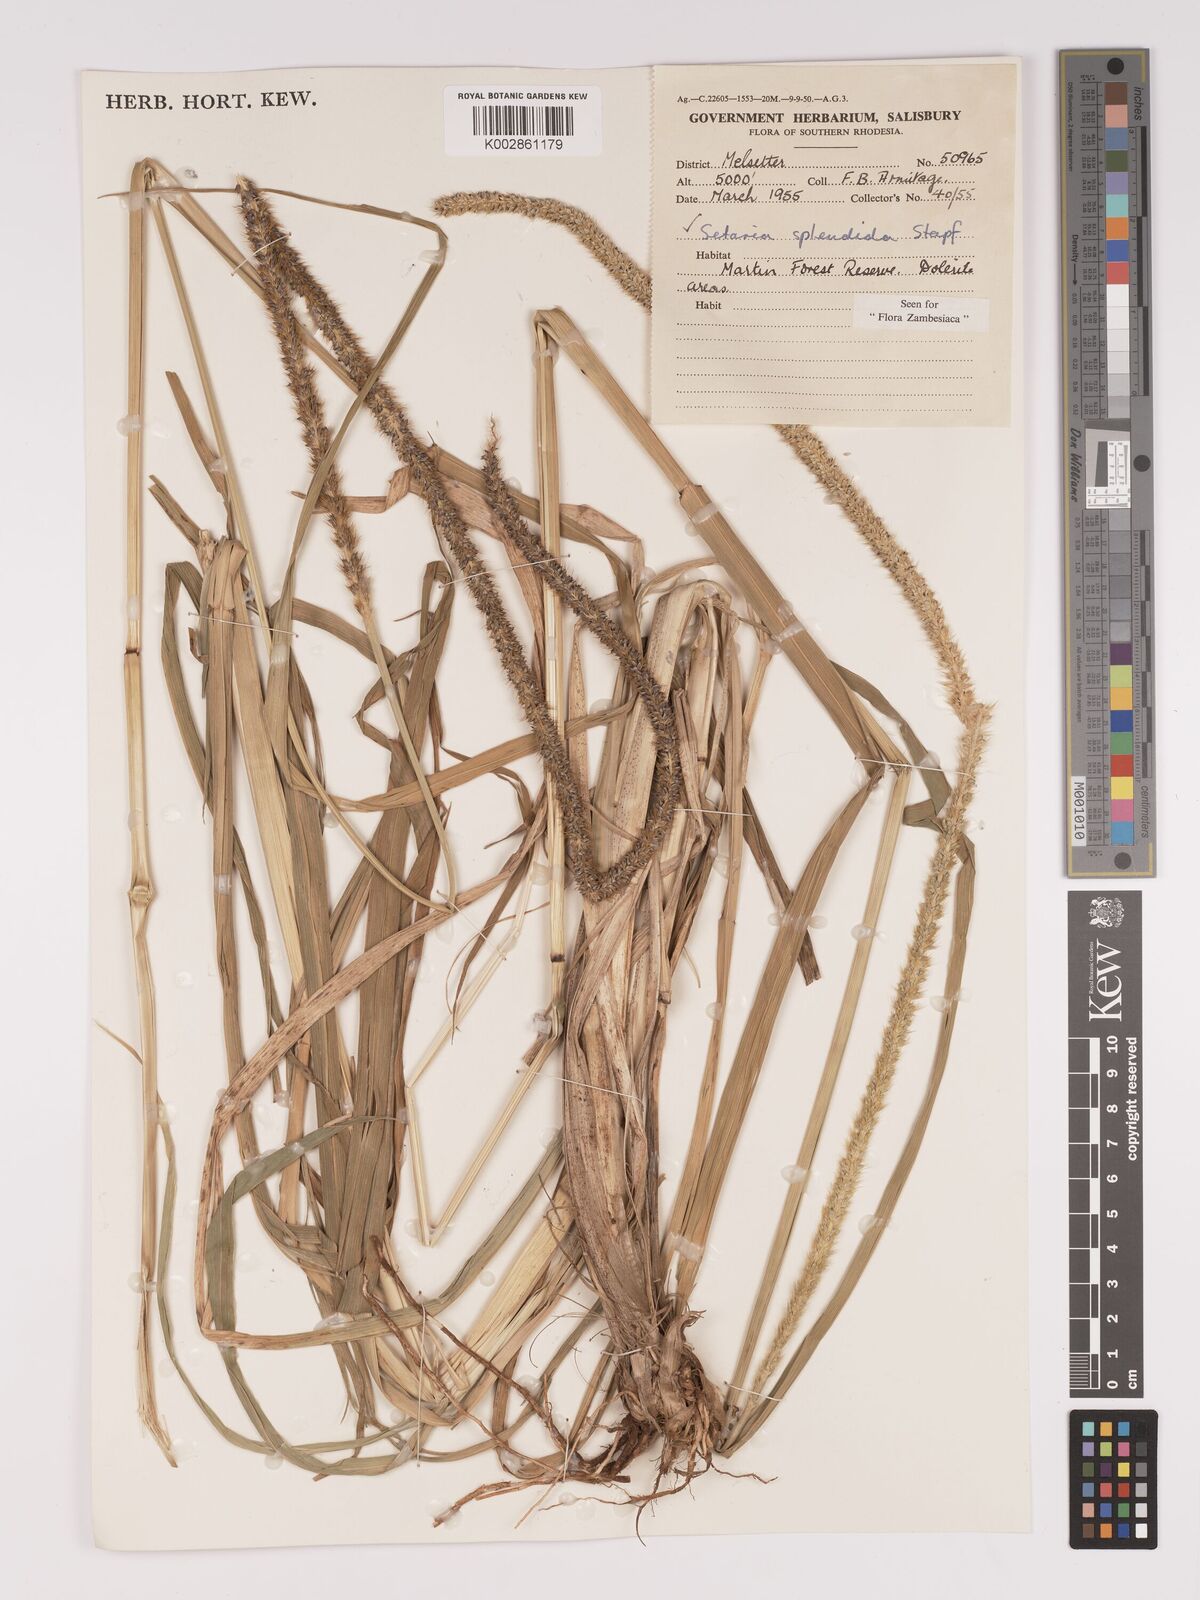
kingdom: Plantae
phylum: Tracheophyta
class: Liliopsida
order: Poales
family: Poaceae
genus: Setaria
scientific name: Setaria sphacelata
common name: African bristlegrass
